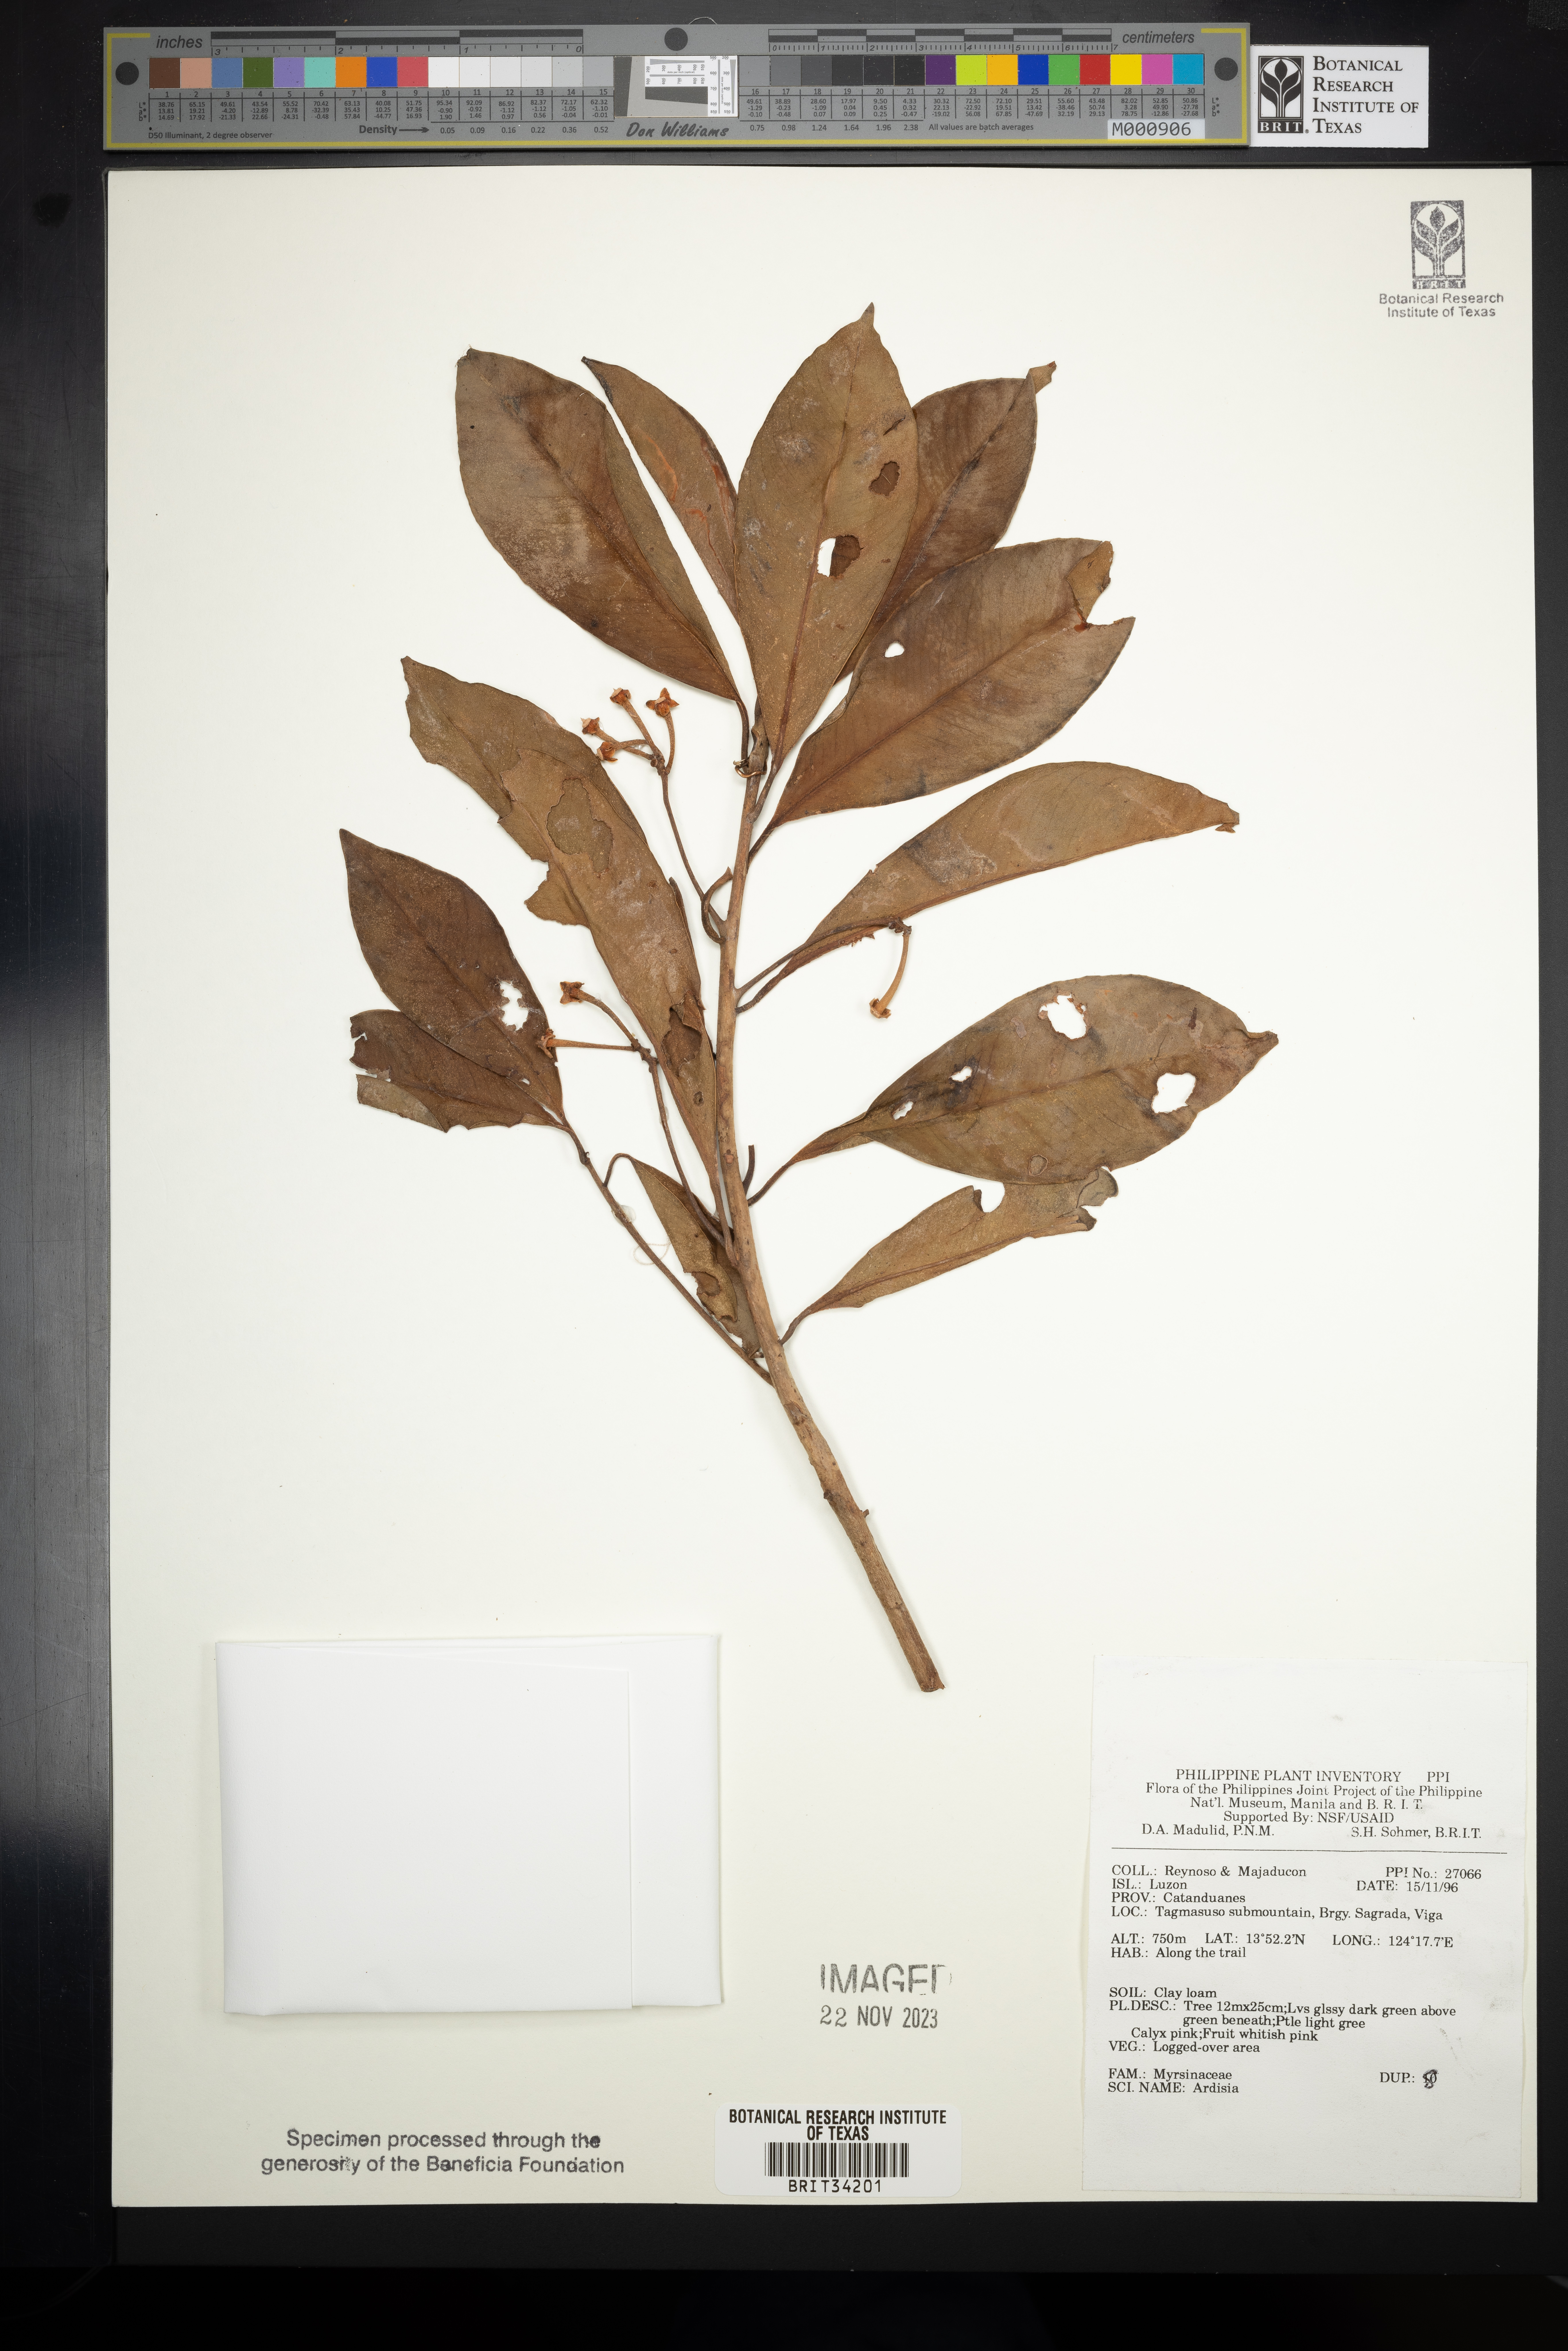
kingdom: Plantae
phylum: Tracheophyta
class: Magnoliopsida
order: Ericales
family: Primulaceae
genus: Ardisia
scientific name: Ardisia
